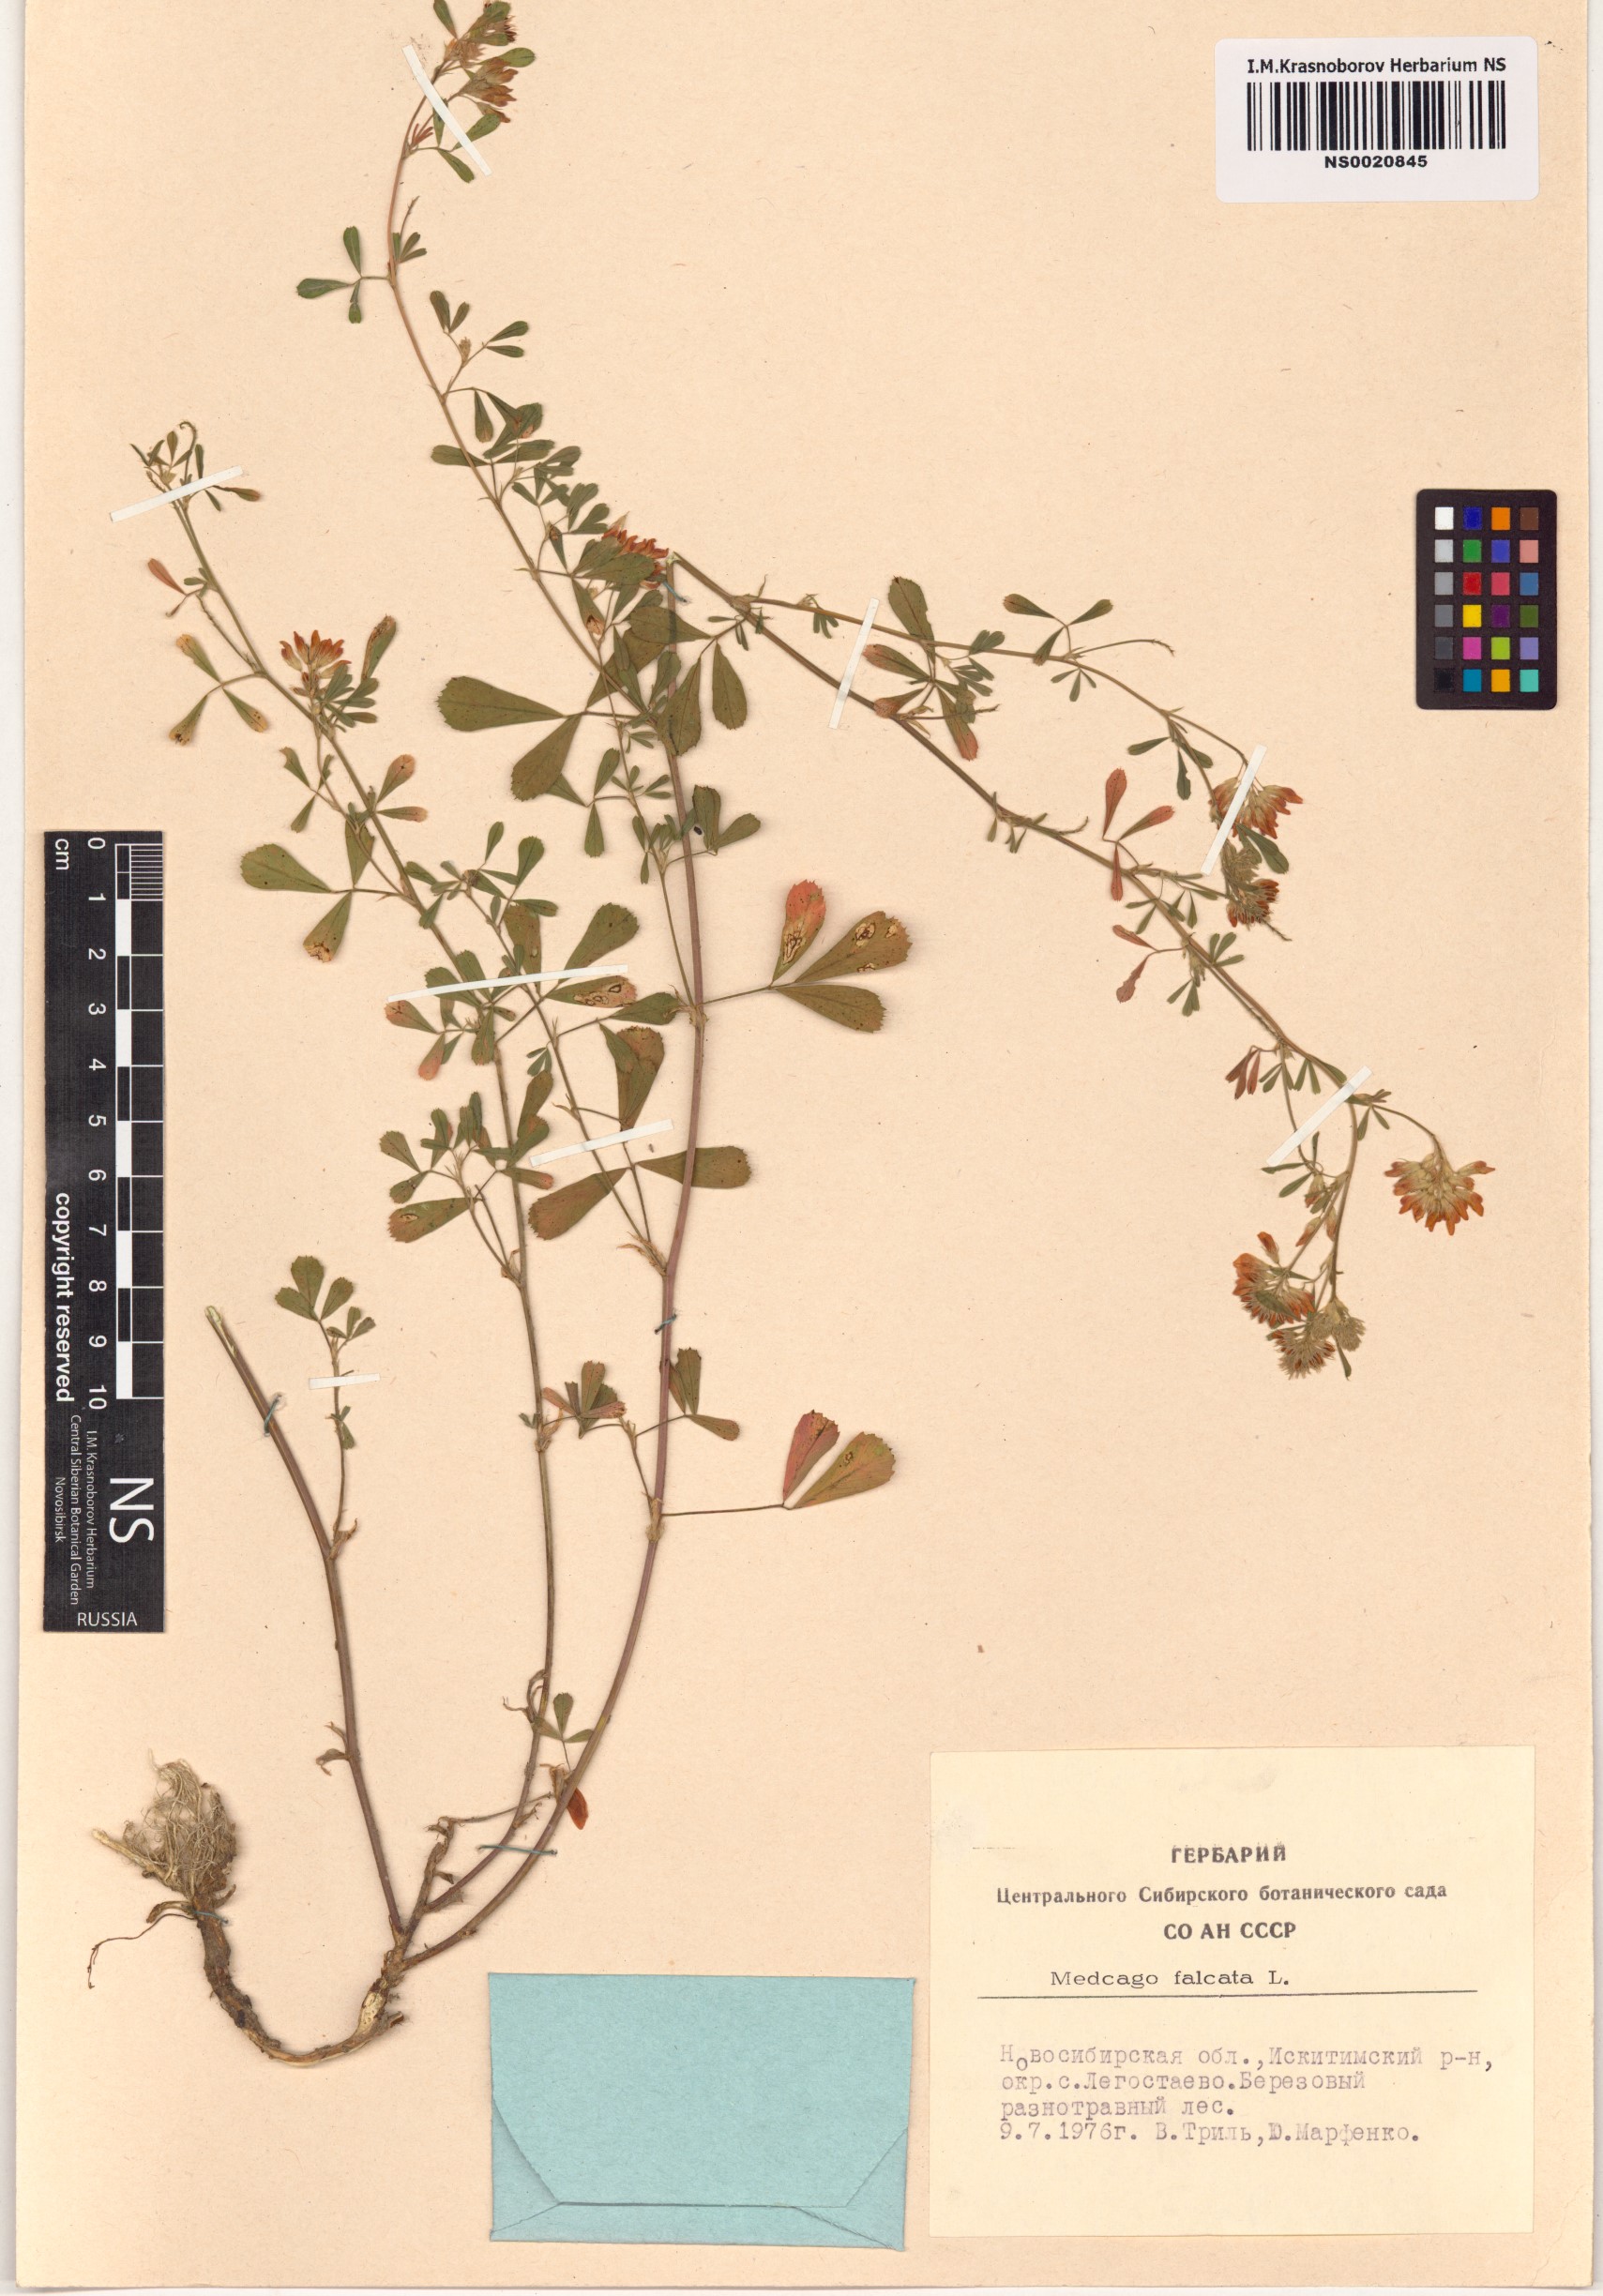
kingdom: Plantae
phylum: Tracheophyta
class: Magnoliopsida
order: Fabales
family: Fabaceae
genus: Medicago
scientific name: Medicago falcata
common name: Sickle medick
